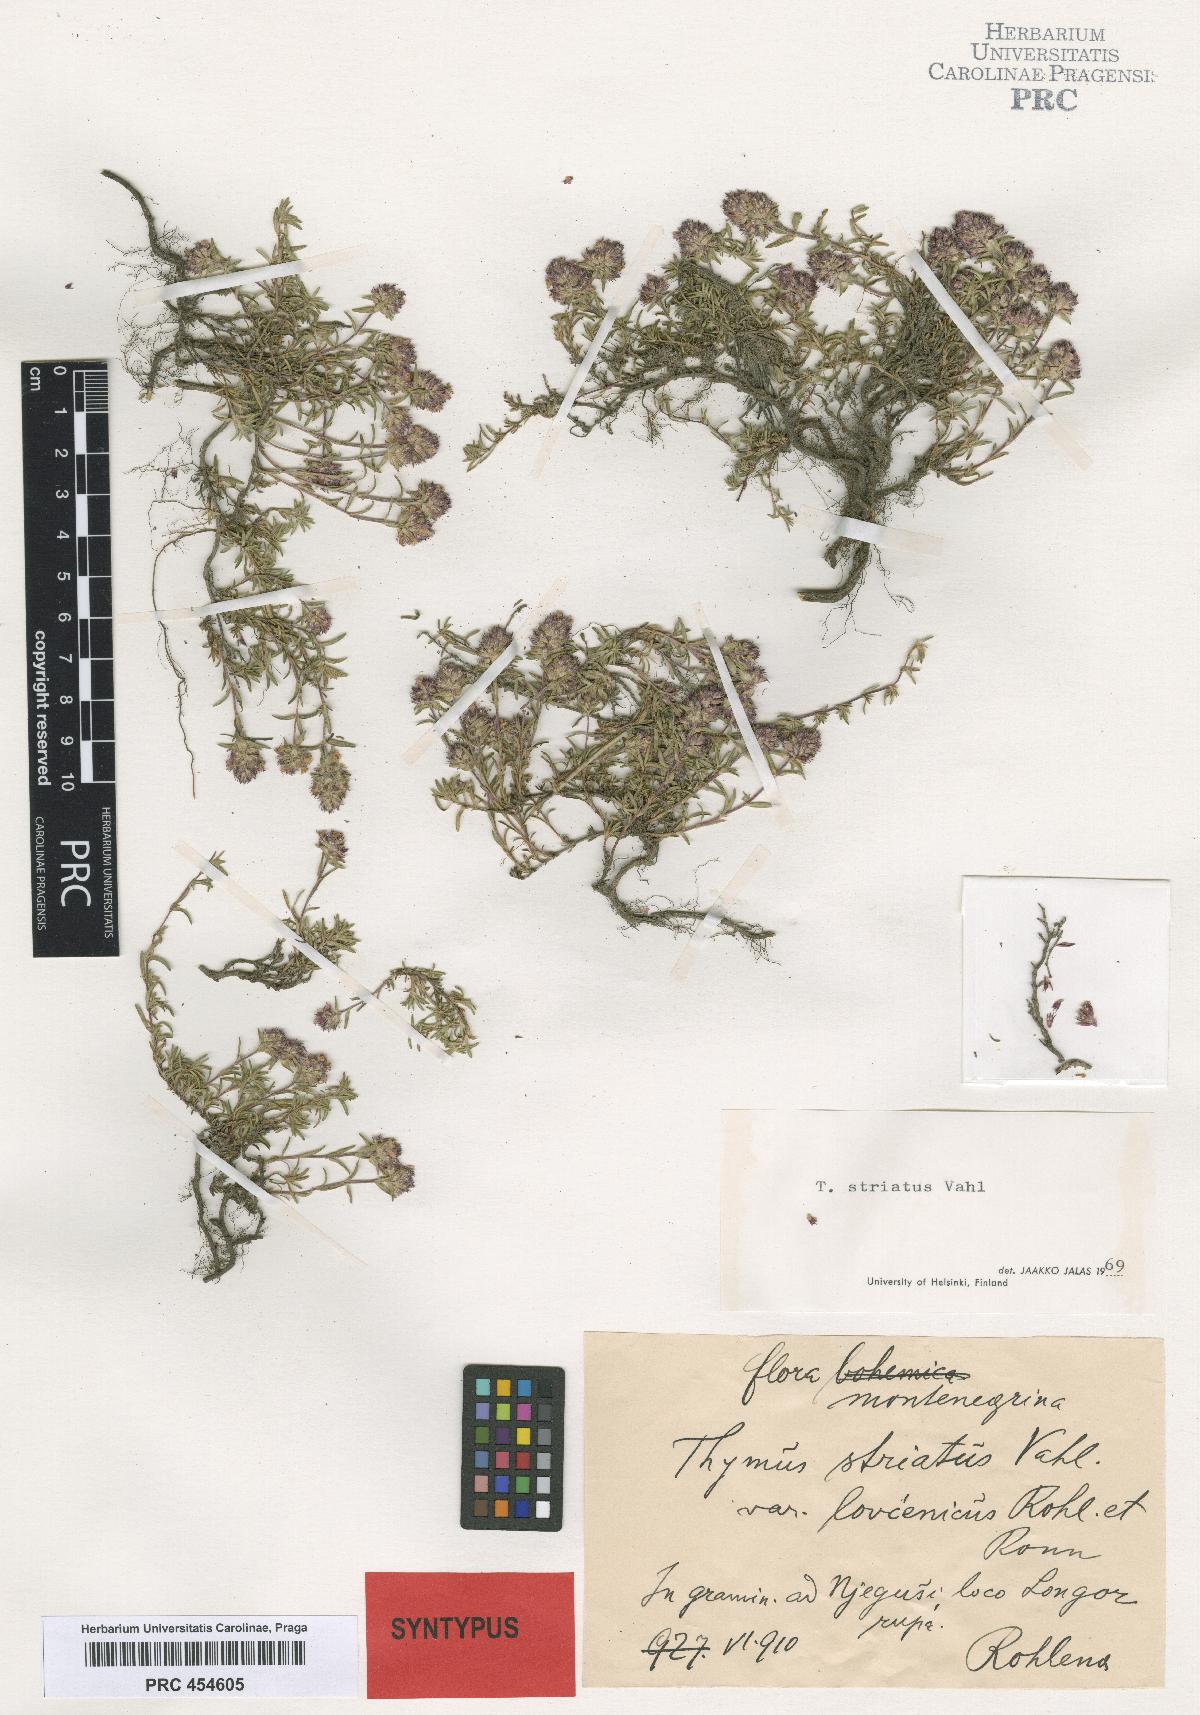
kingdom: Plantae
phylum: Tracheophyta
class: Magnoliopsida
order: Lamiales
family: Lamiaceae
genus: Thymus
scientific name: Thymus striatus
